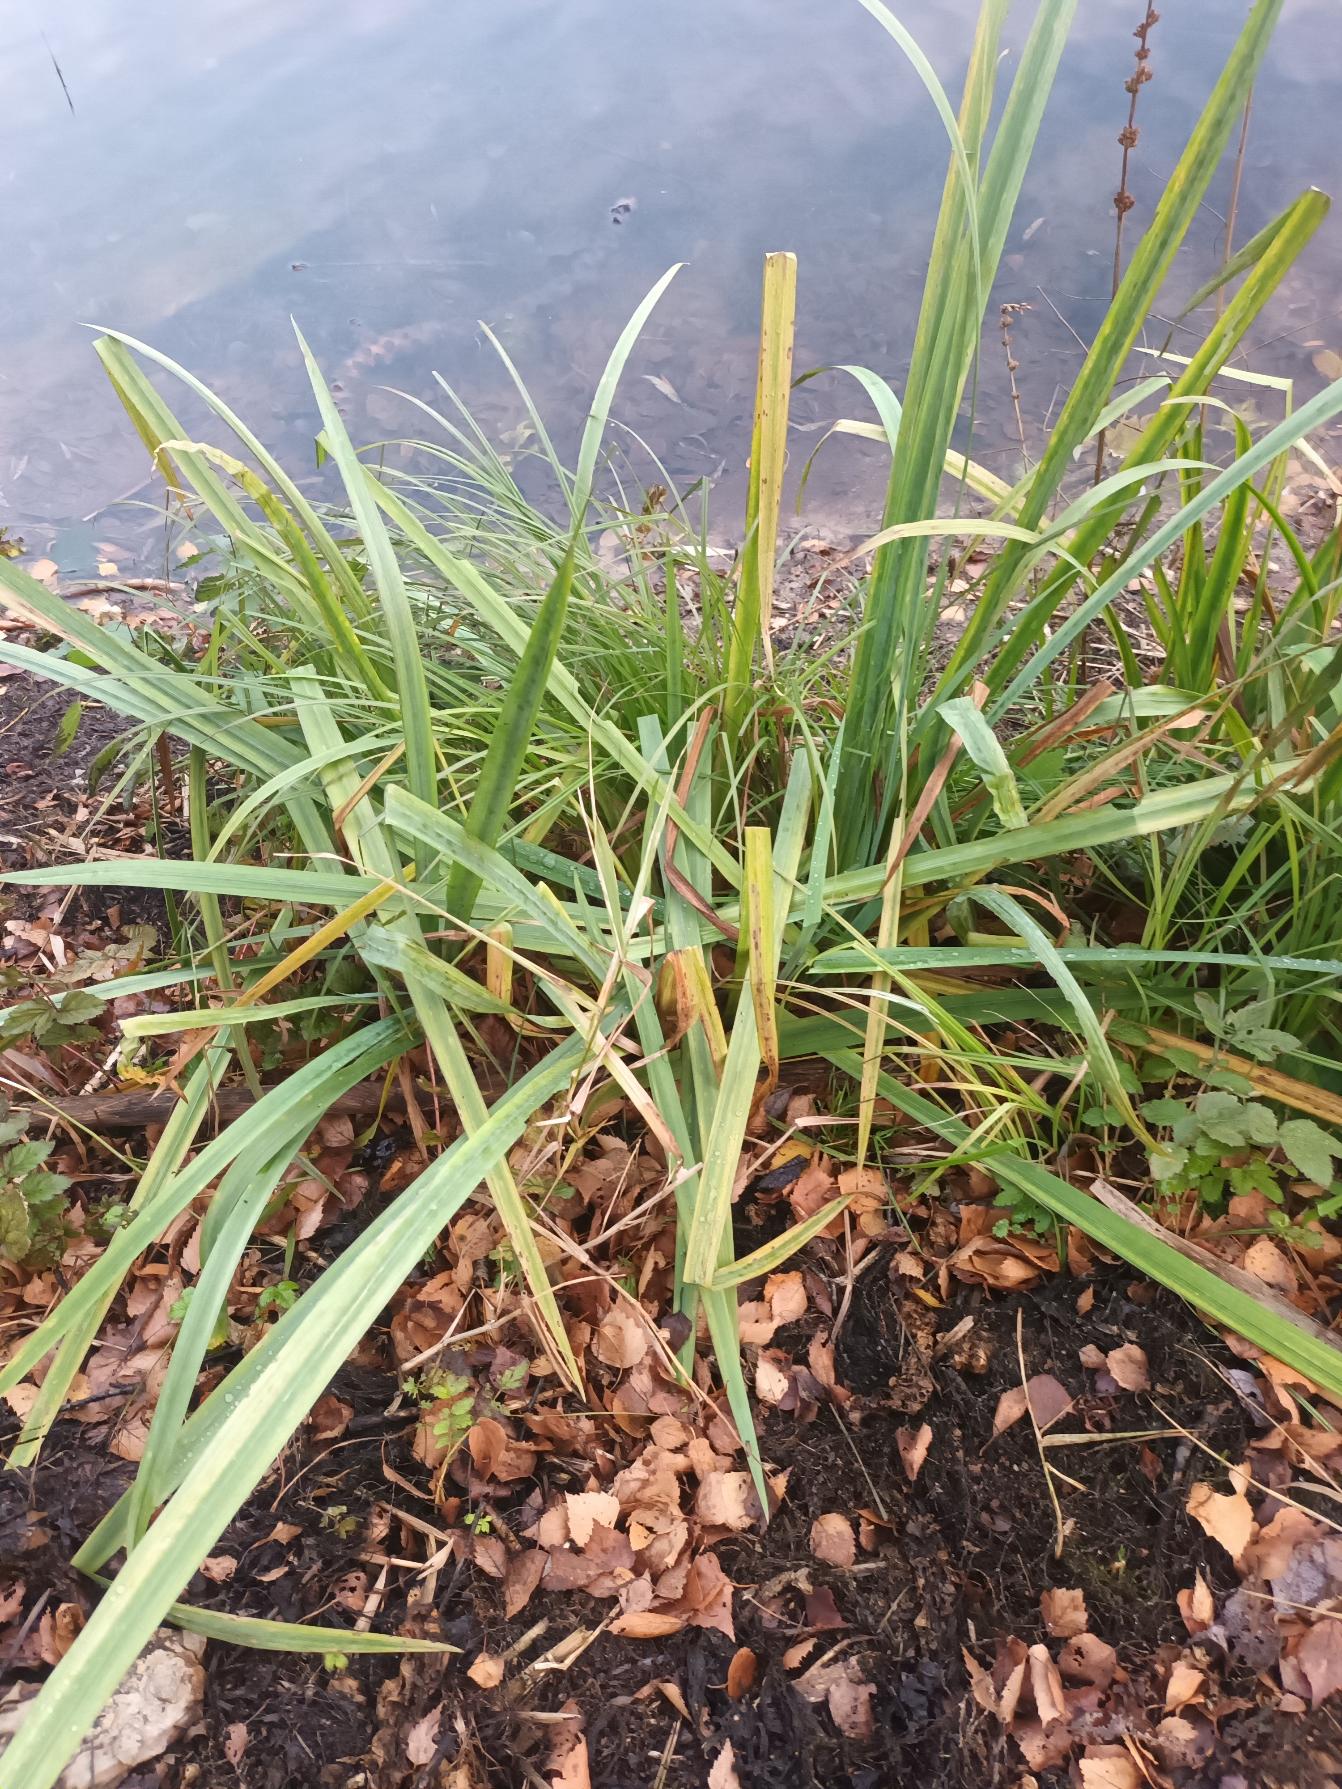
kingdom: Plantae
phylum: Tracheophyta
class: Liliopsida
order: Asparagales
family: Iridaceae
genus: Iris
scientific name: Iris pseudacorus
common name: Gul iris
